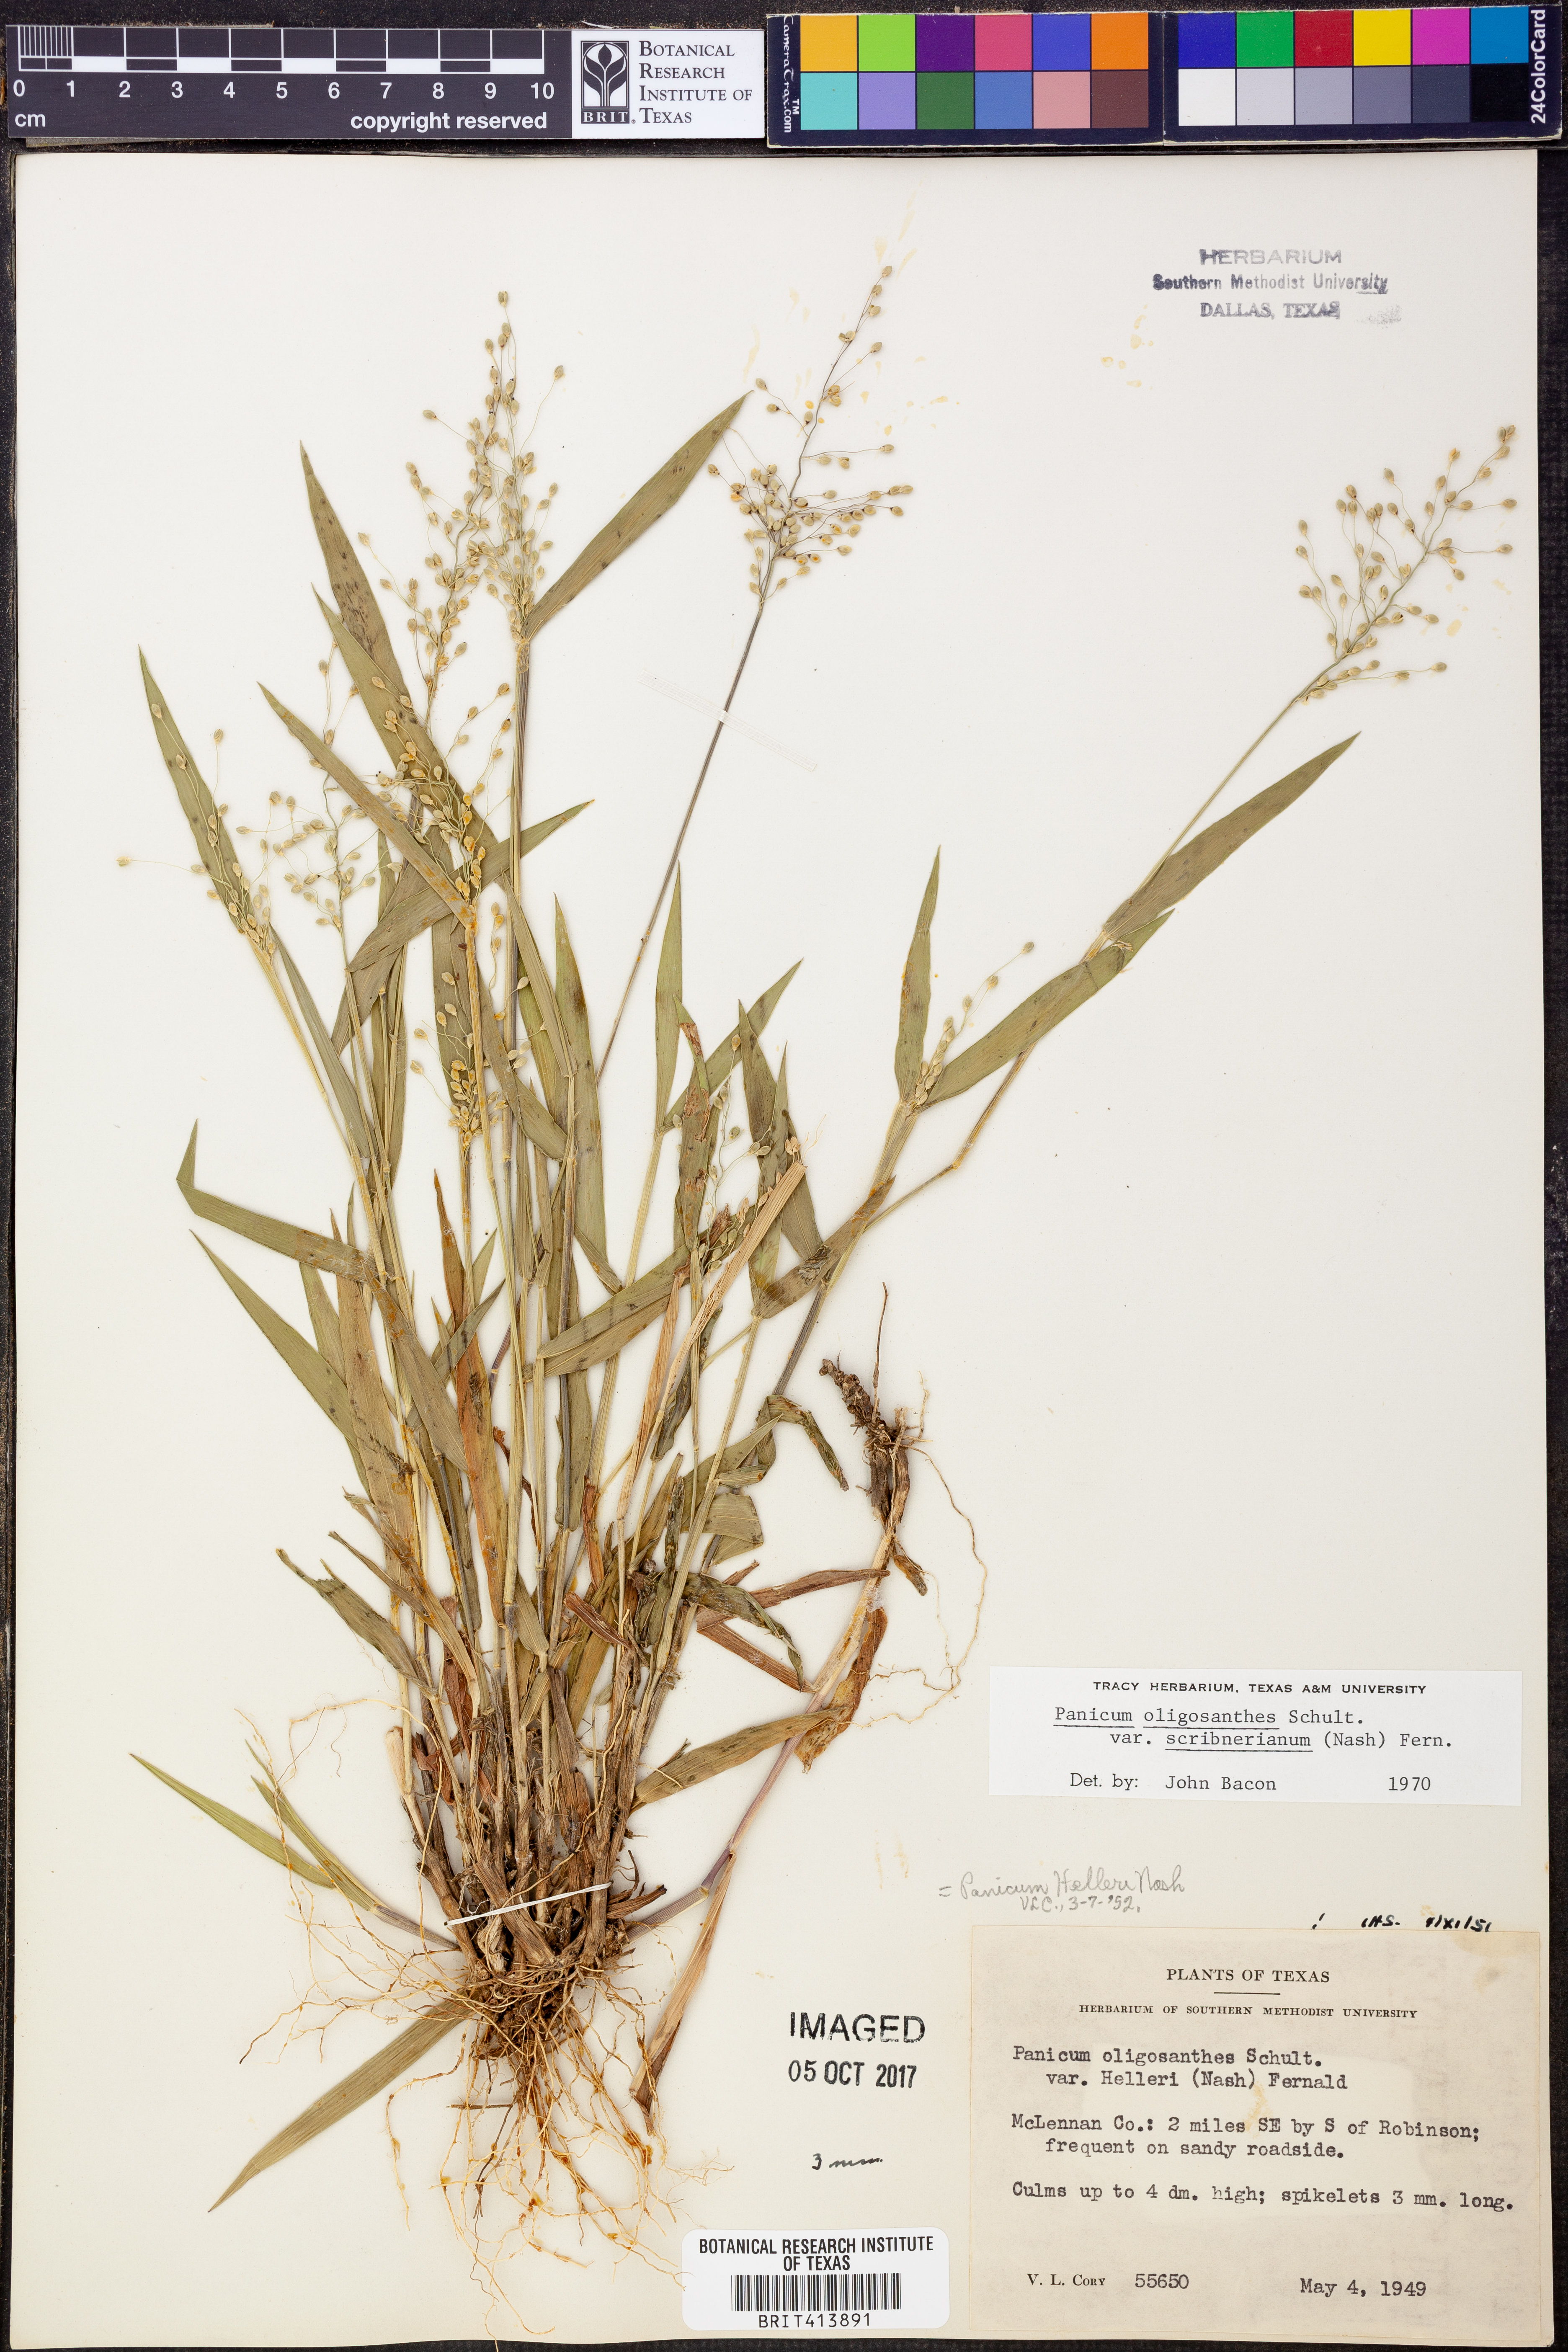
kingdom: Plantae
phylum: Tracheophyta
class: Liliopsida
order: Poales
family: Poaceae
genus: Dichanthelium
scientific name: Dichanthelium scribnerianum
